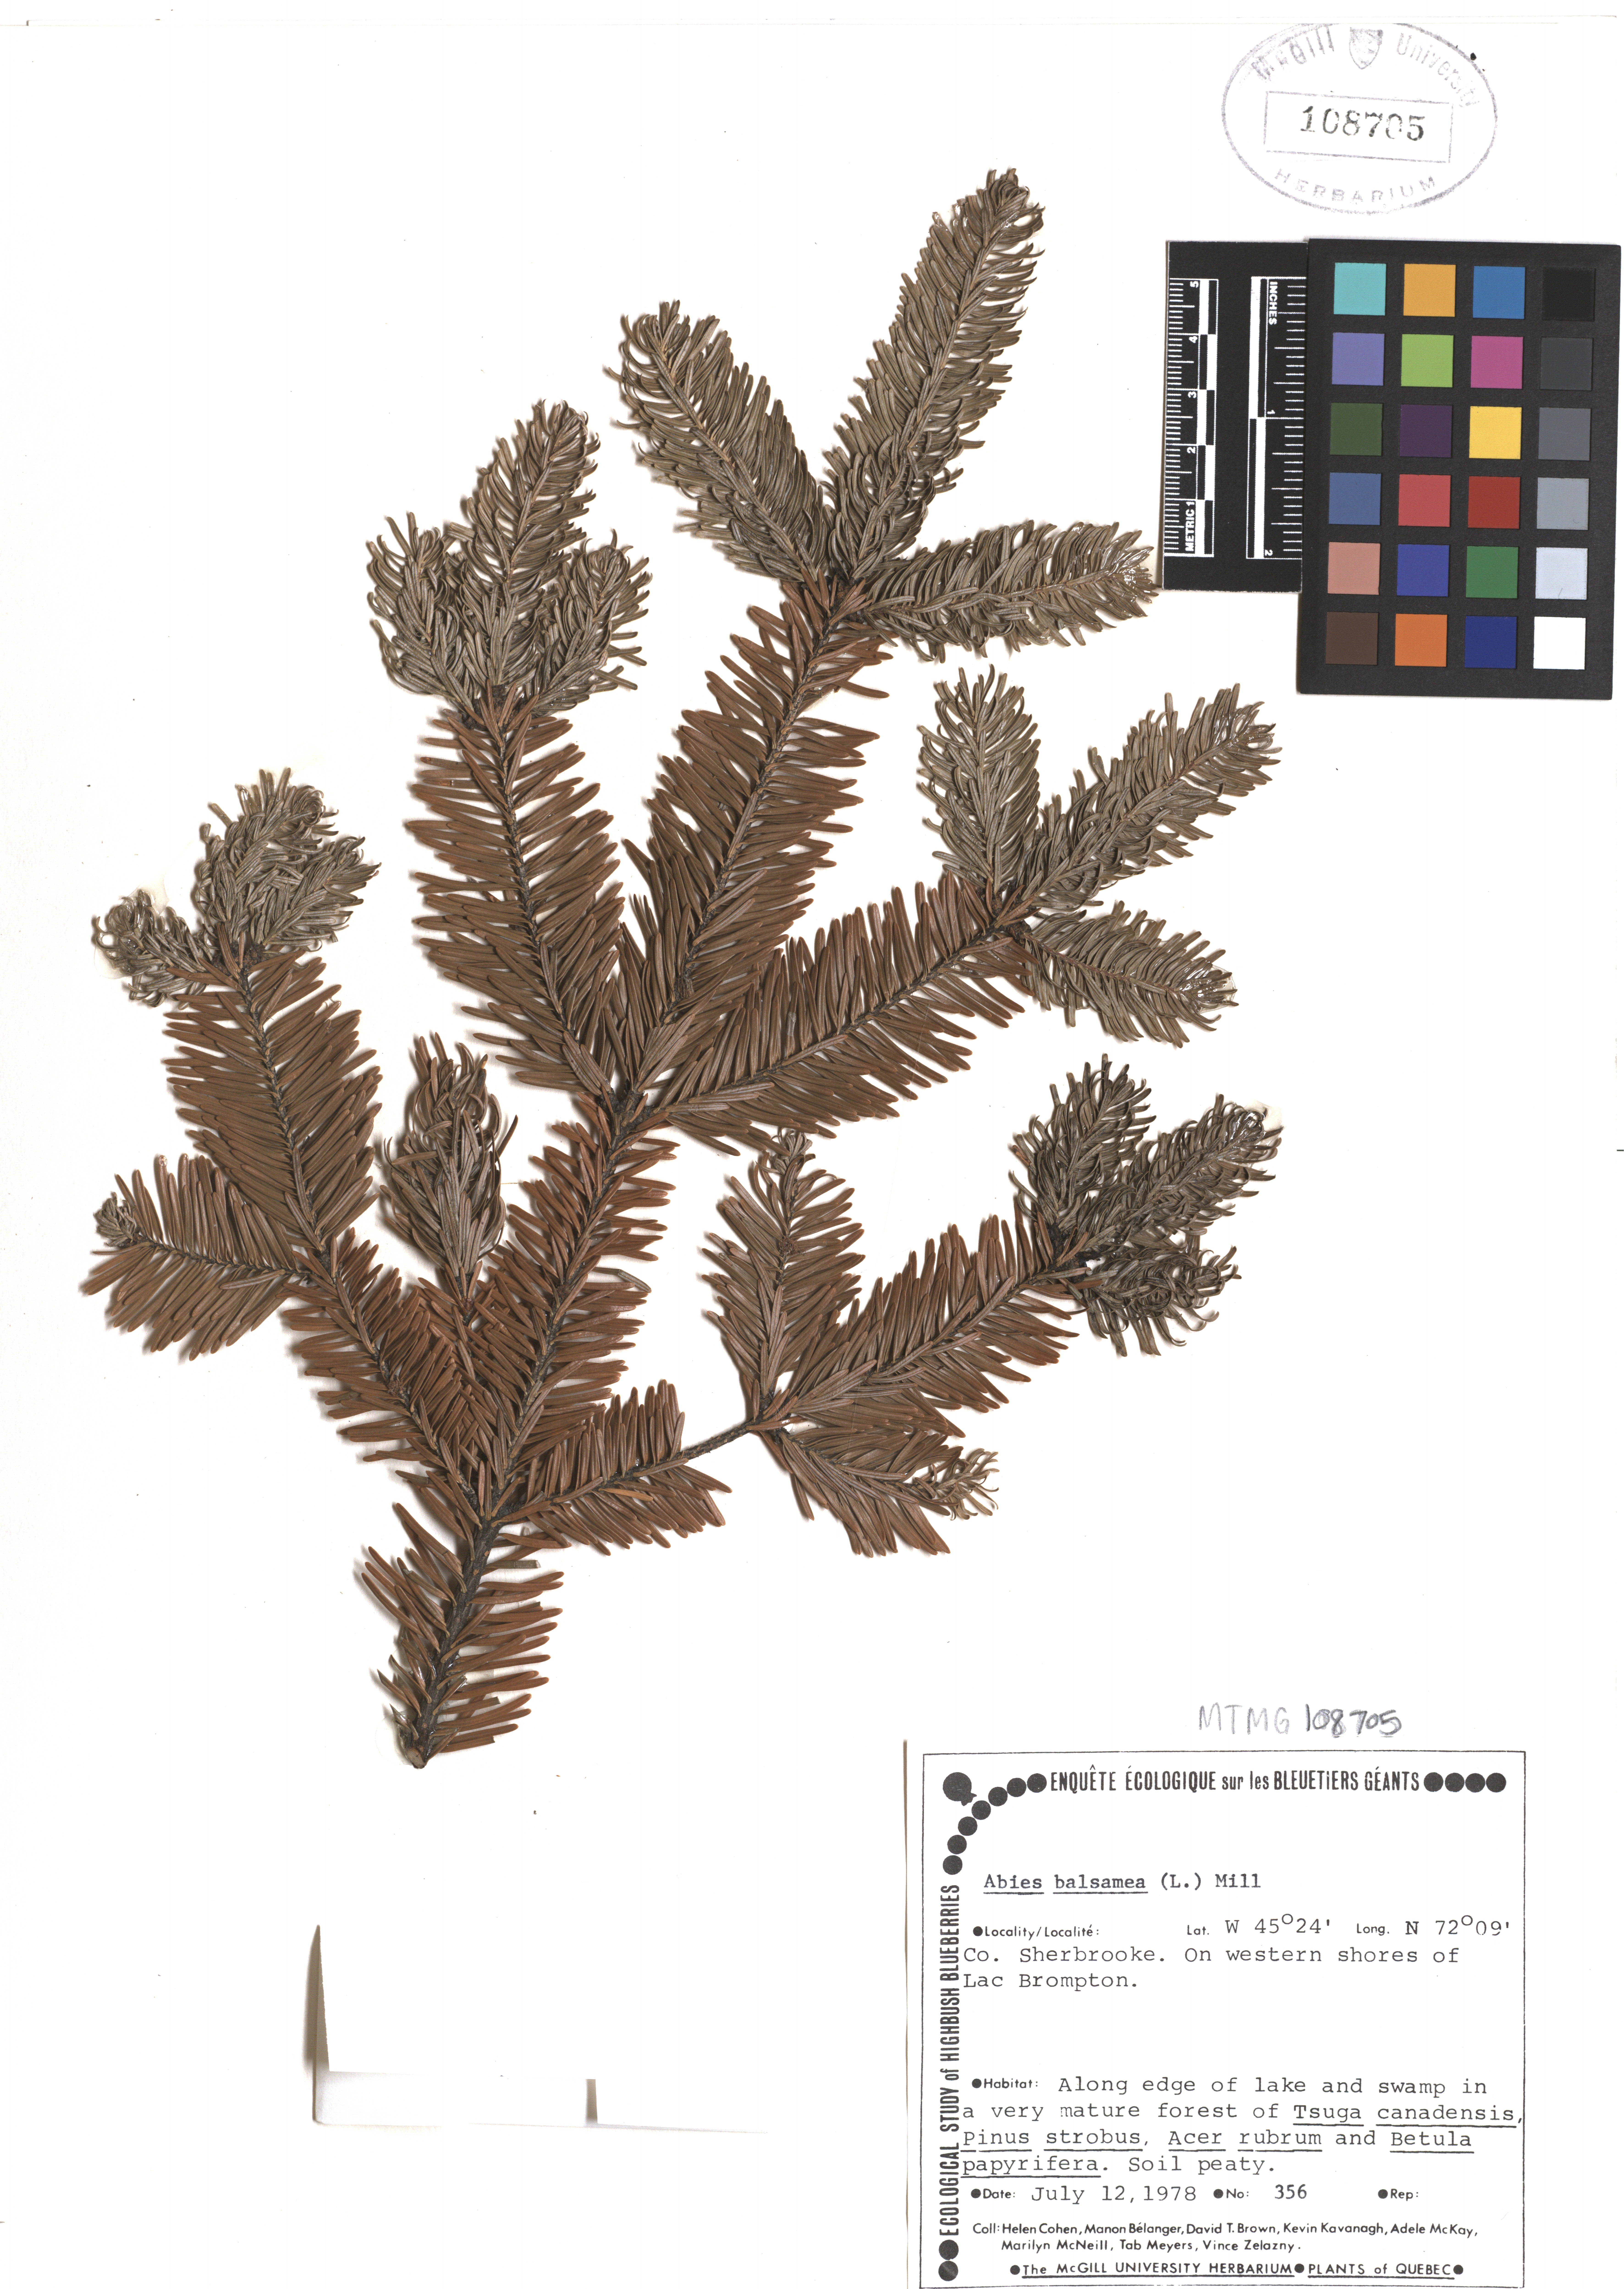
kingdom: Plantae
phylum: Tracheophyta
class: Pinopsida
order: Pinales
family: Pinaceae
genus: Abies
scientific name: Abies balsamea
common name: Balsam fir
